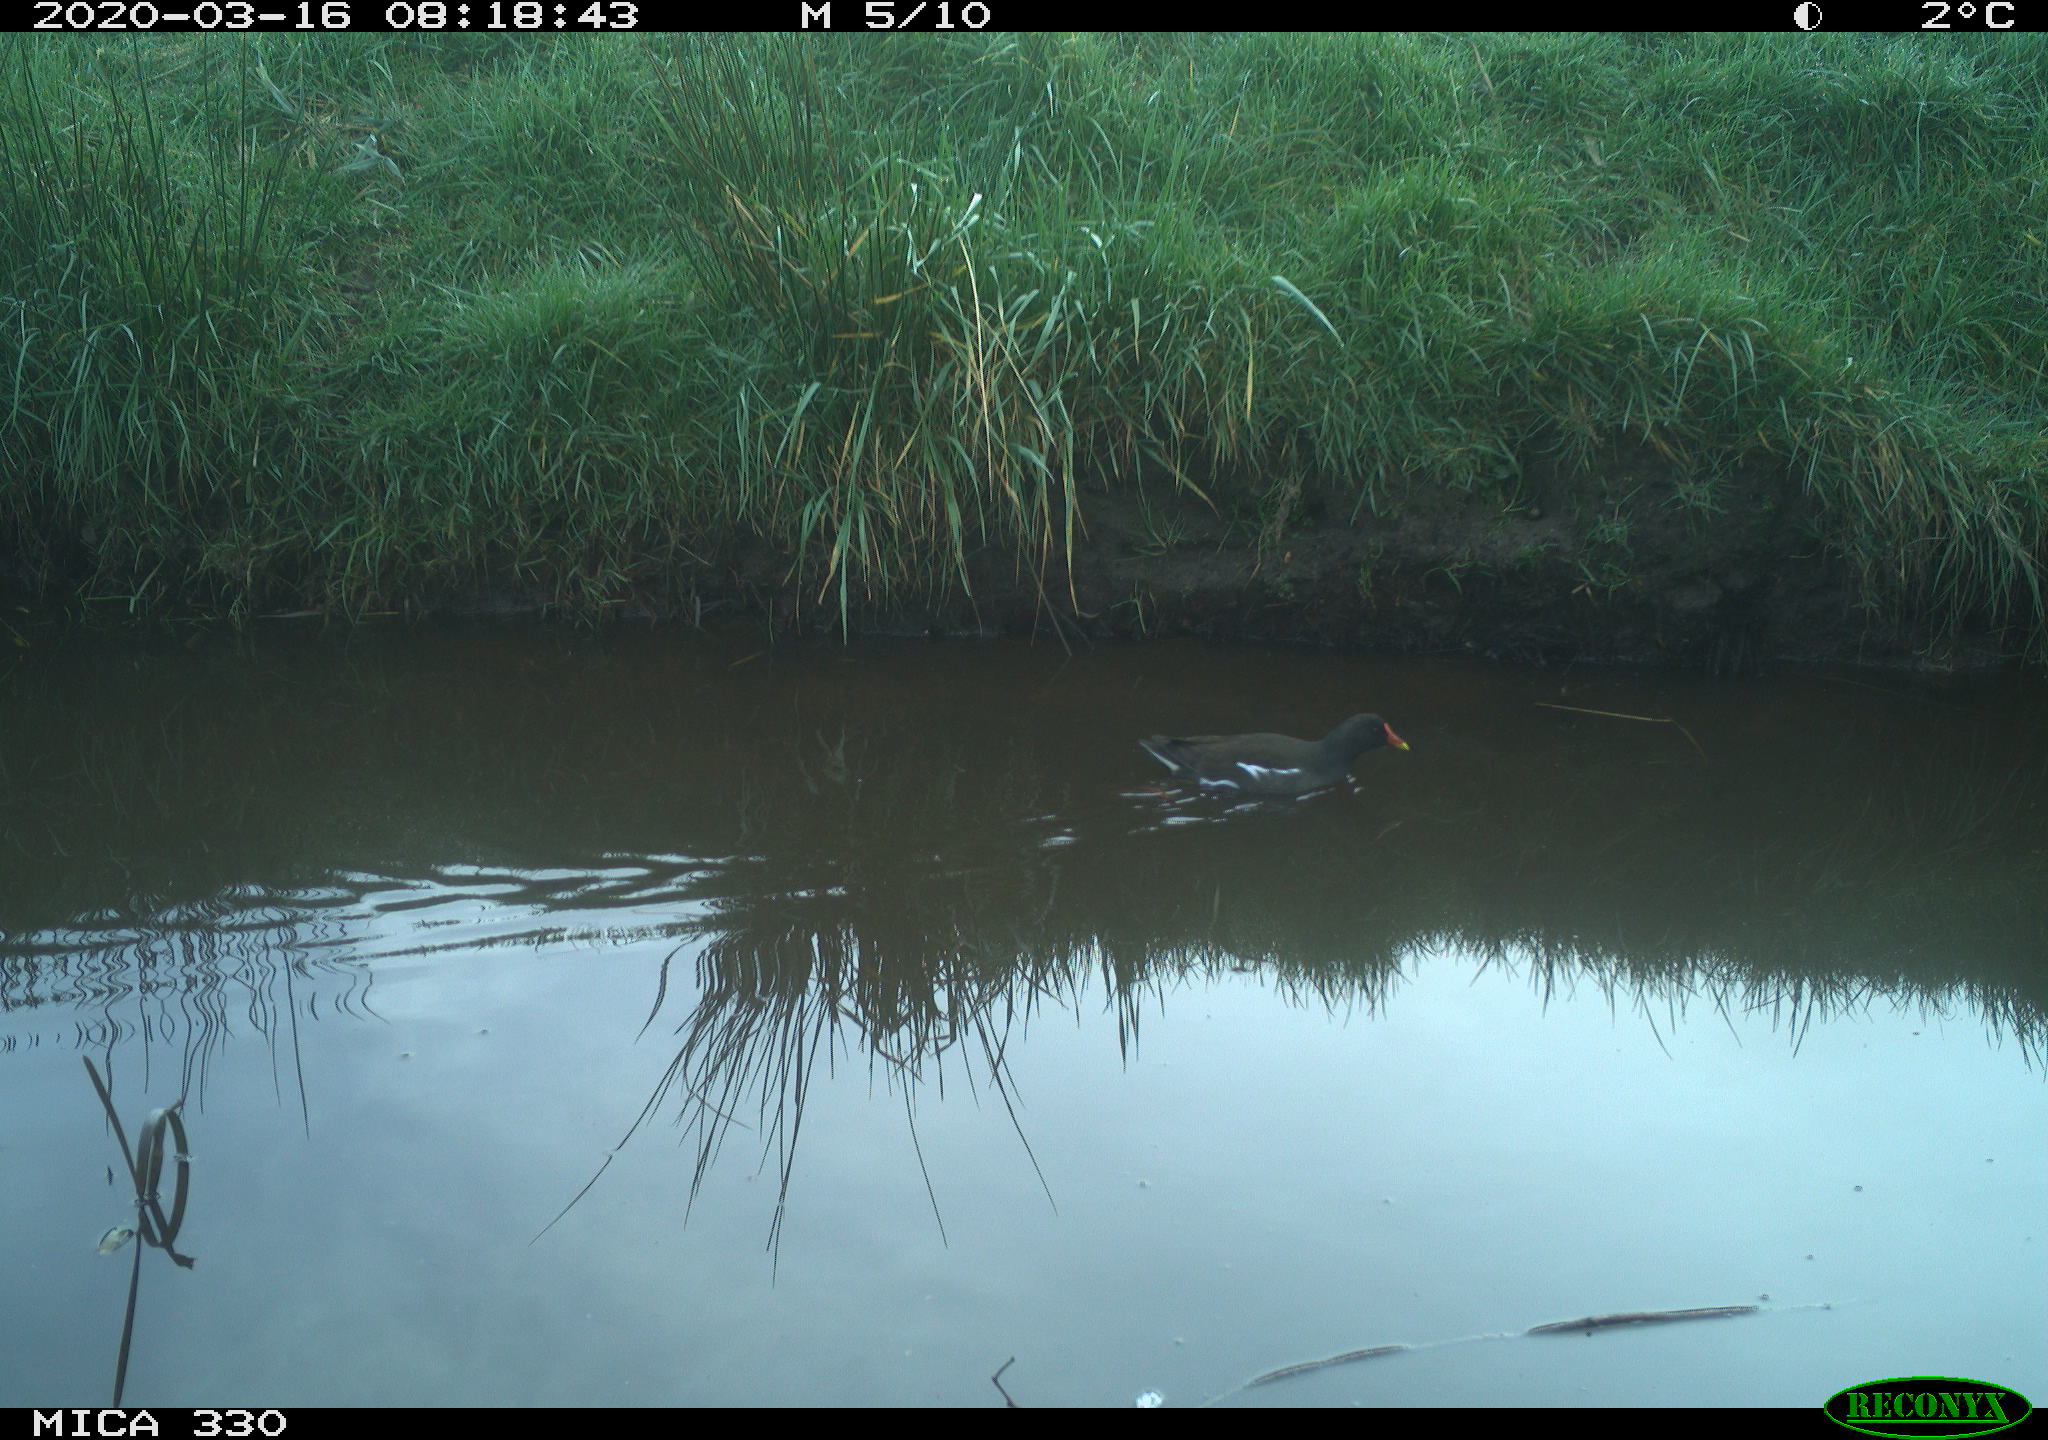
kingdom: Animalia
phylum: Chordata
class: Aves
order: Gruiformes
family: Rallidae
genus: Gallinula
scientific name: Gallinula chloropus
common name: Common moorhen
